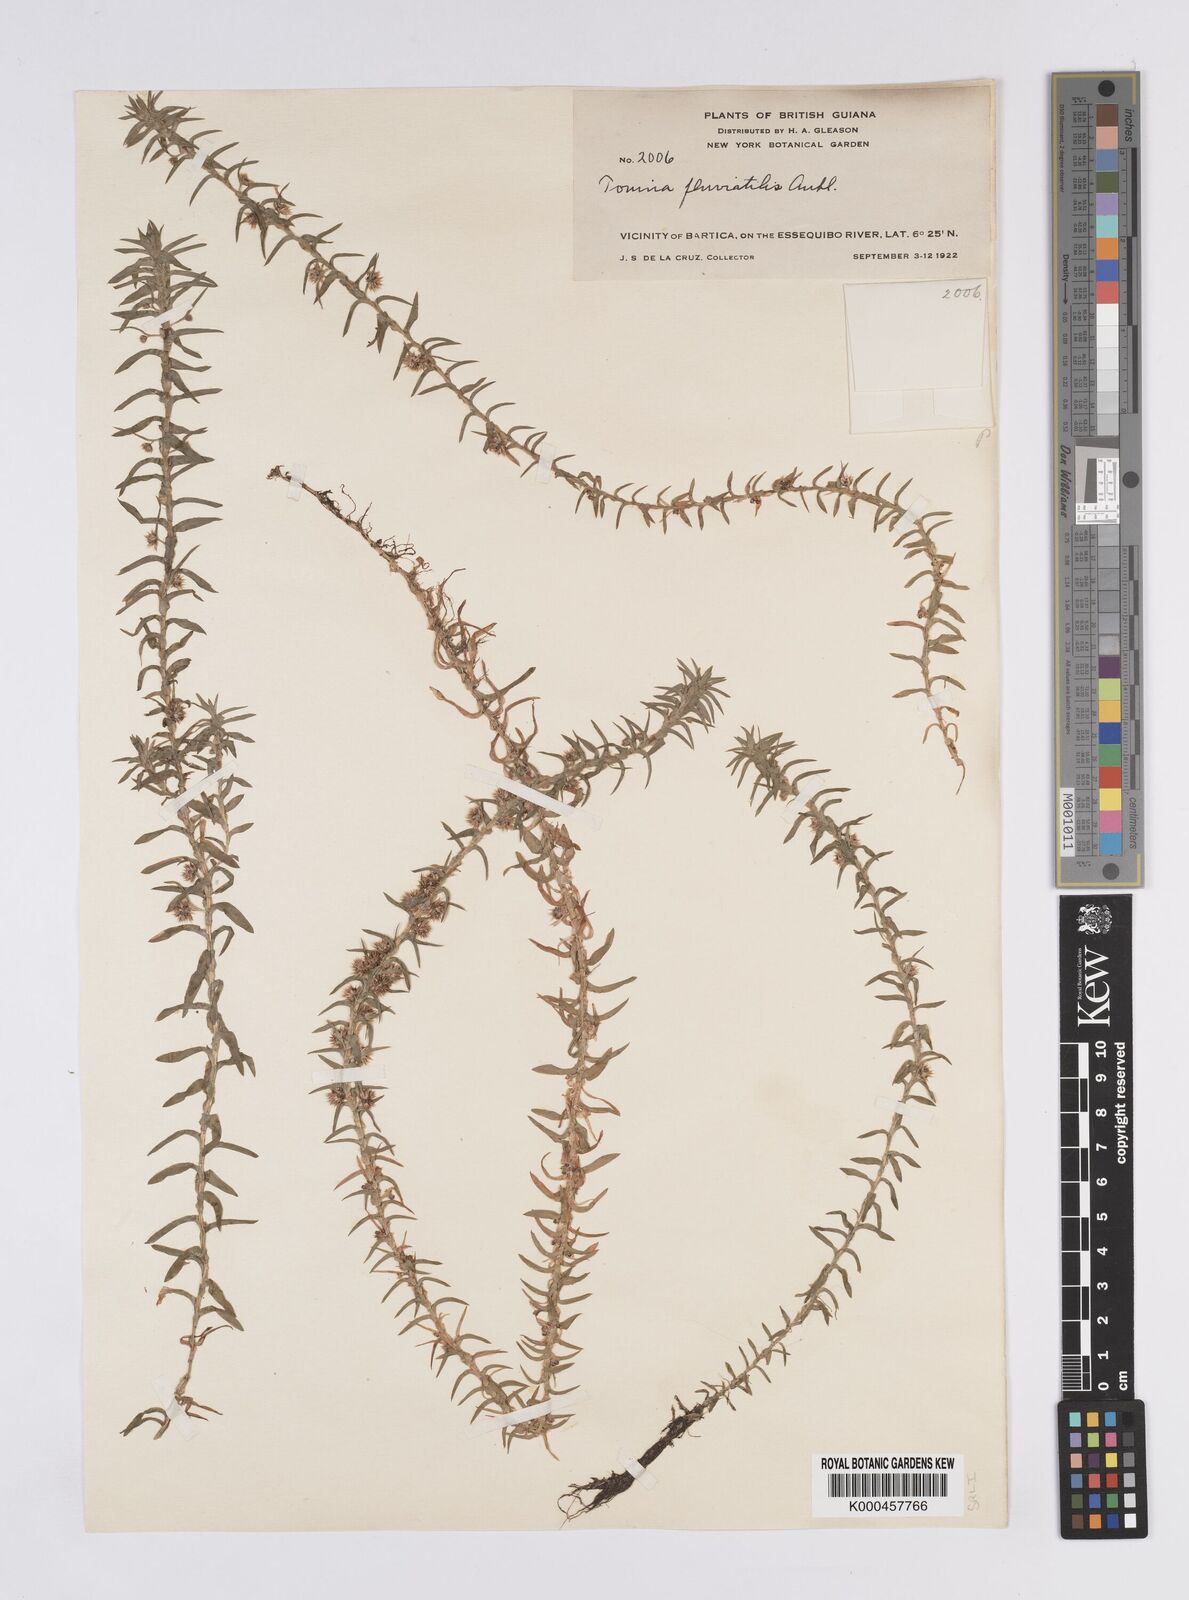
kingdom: Plantae
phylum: Tracheophyta
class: Liliopsida
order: Poales
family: Eriocaulaceae
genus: Paepalanthus
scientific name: Paepalanthus fluviatilis
